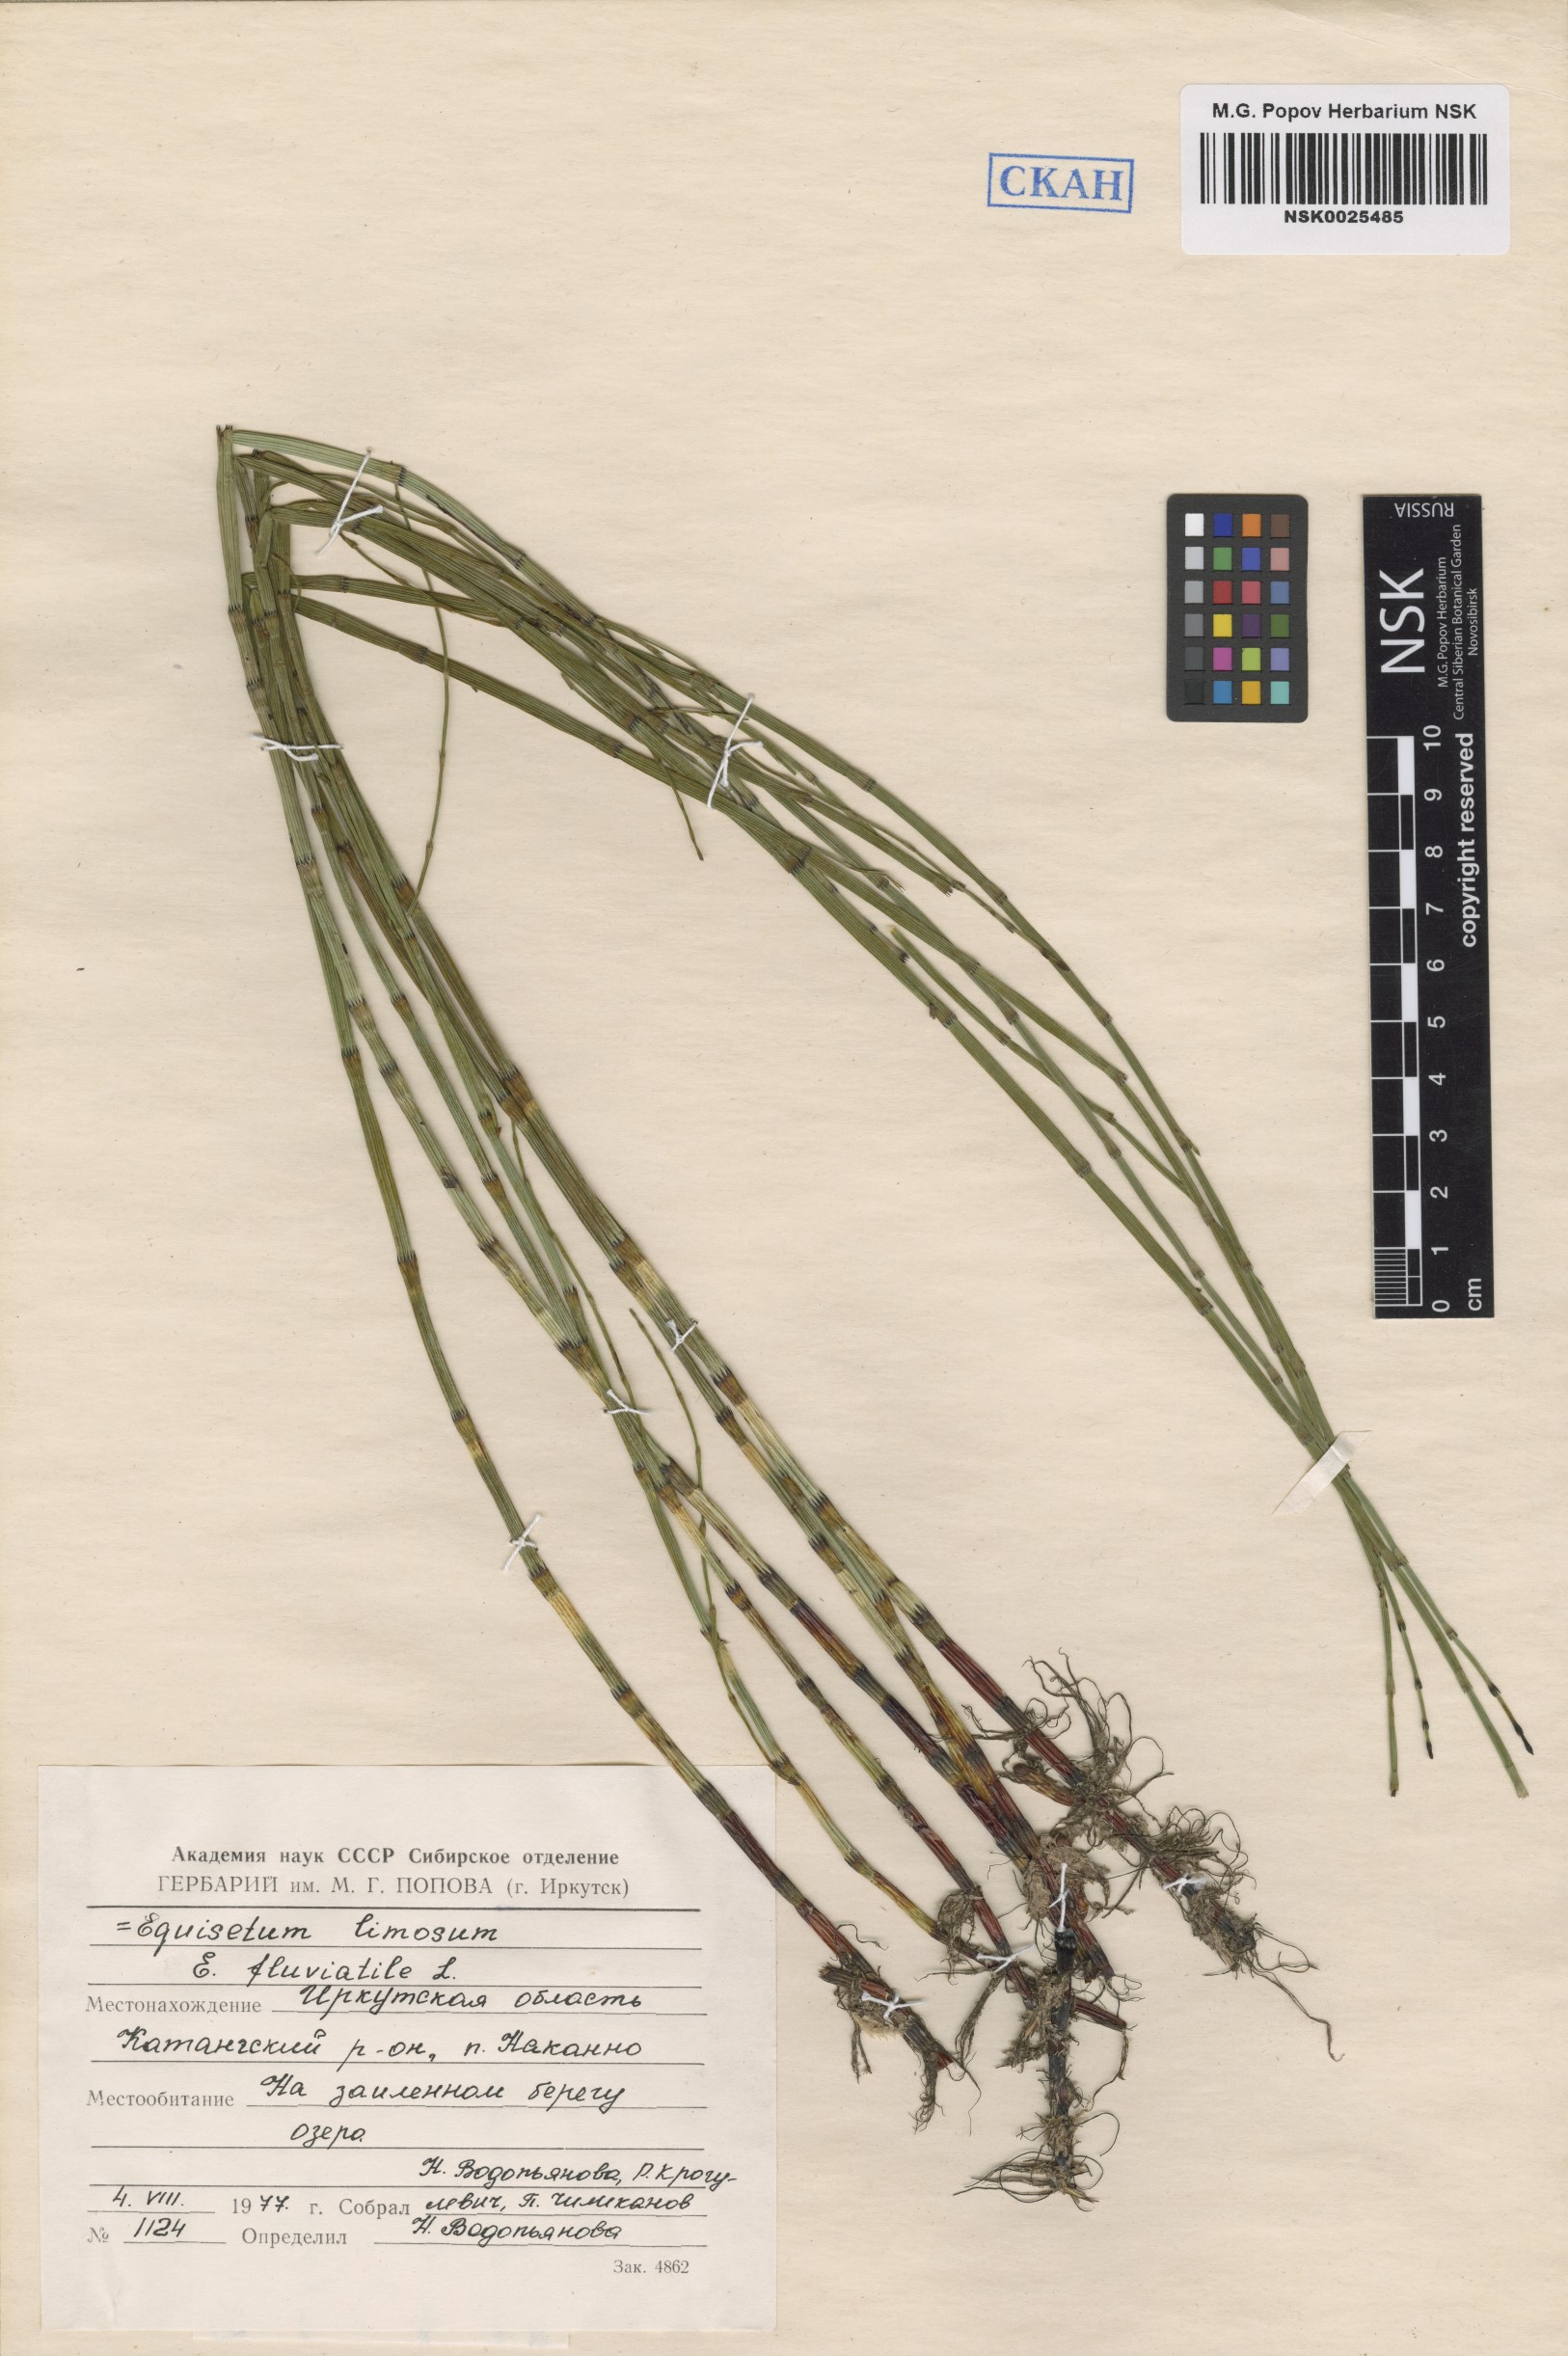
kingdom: Plantae
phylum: Tracheophyta
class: Polypodiopsida
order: Equisetales
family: Equisetaceae
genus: Equisetum
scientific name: Equisetum fluviatile
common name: Water horsetail
